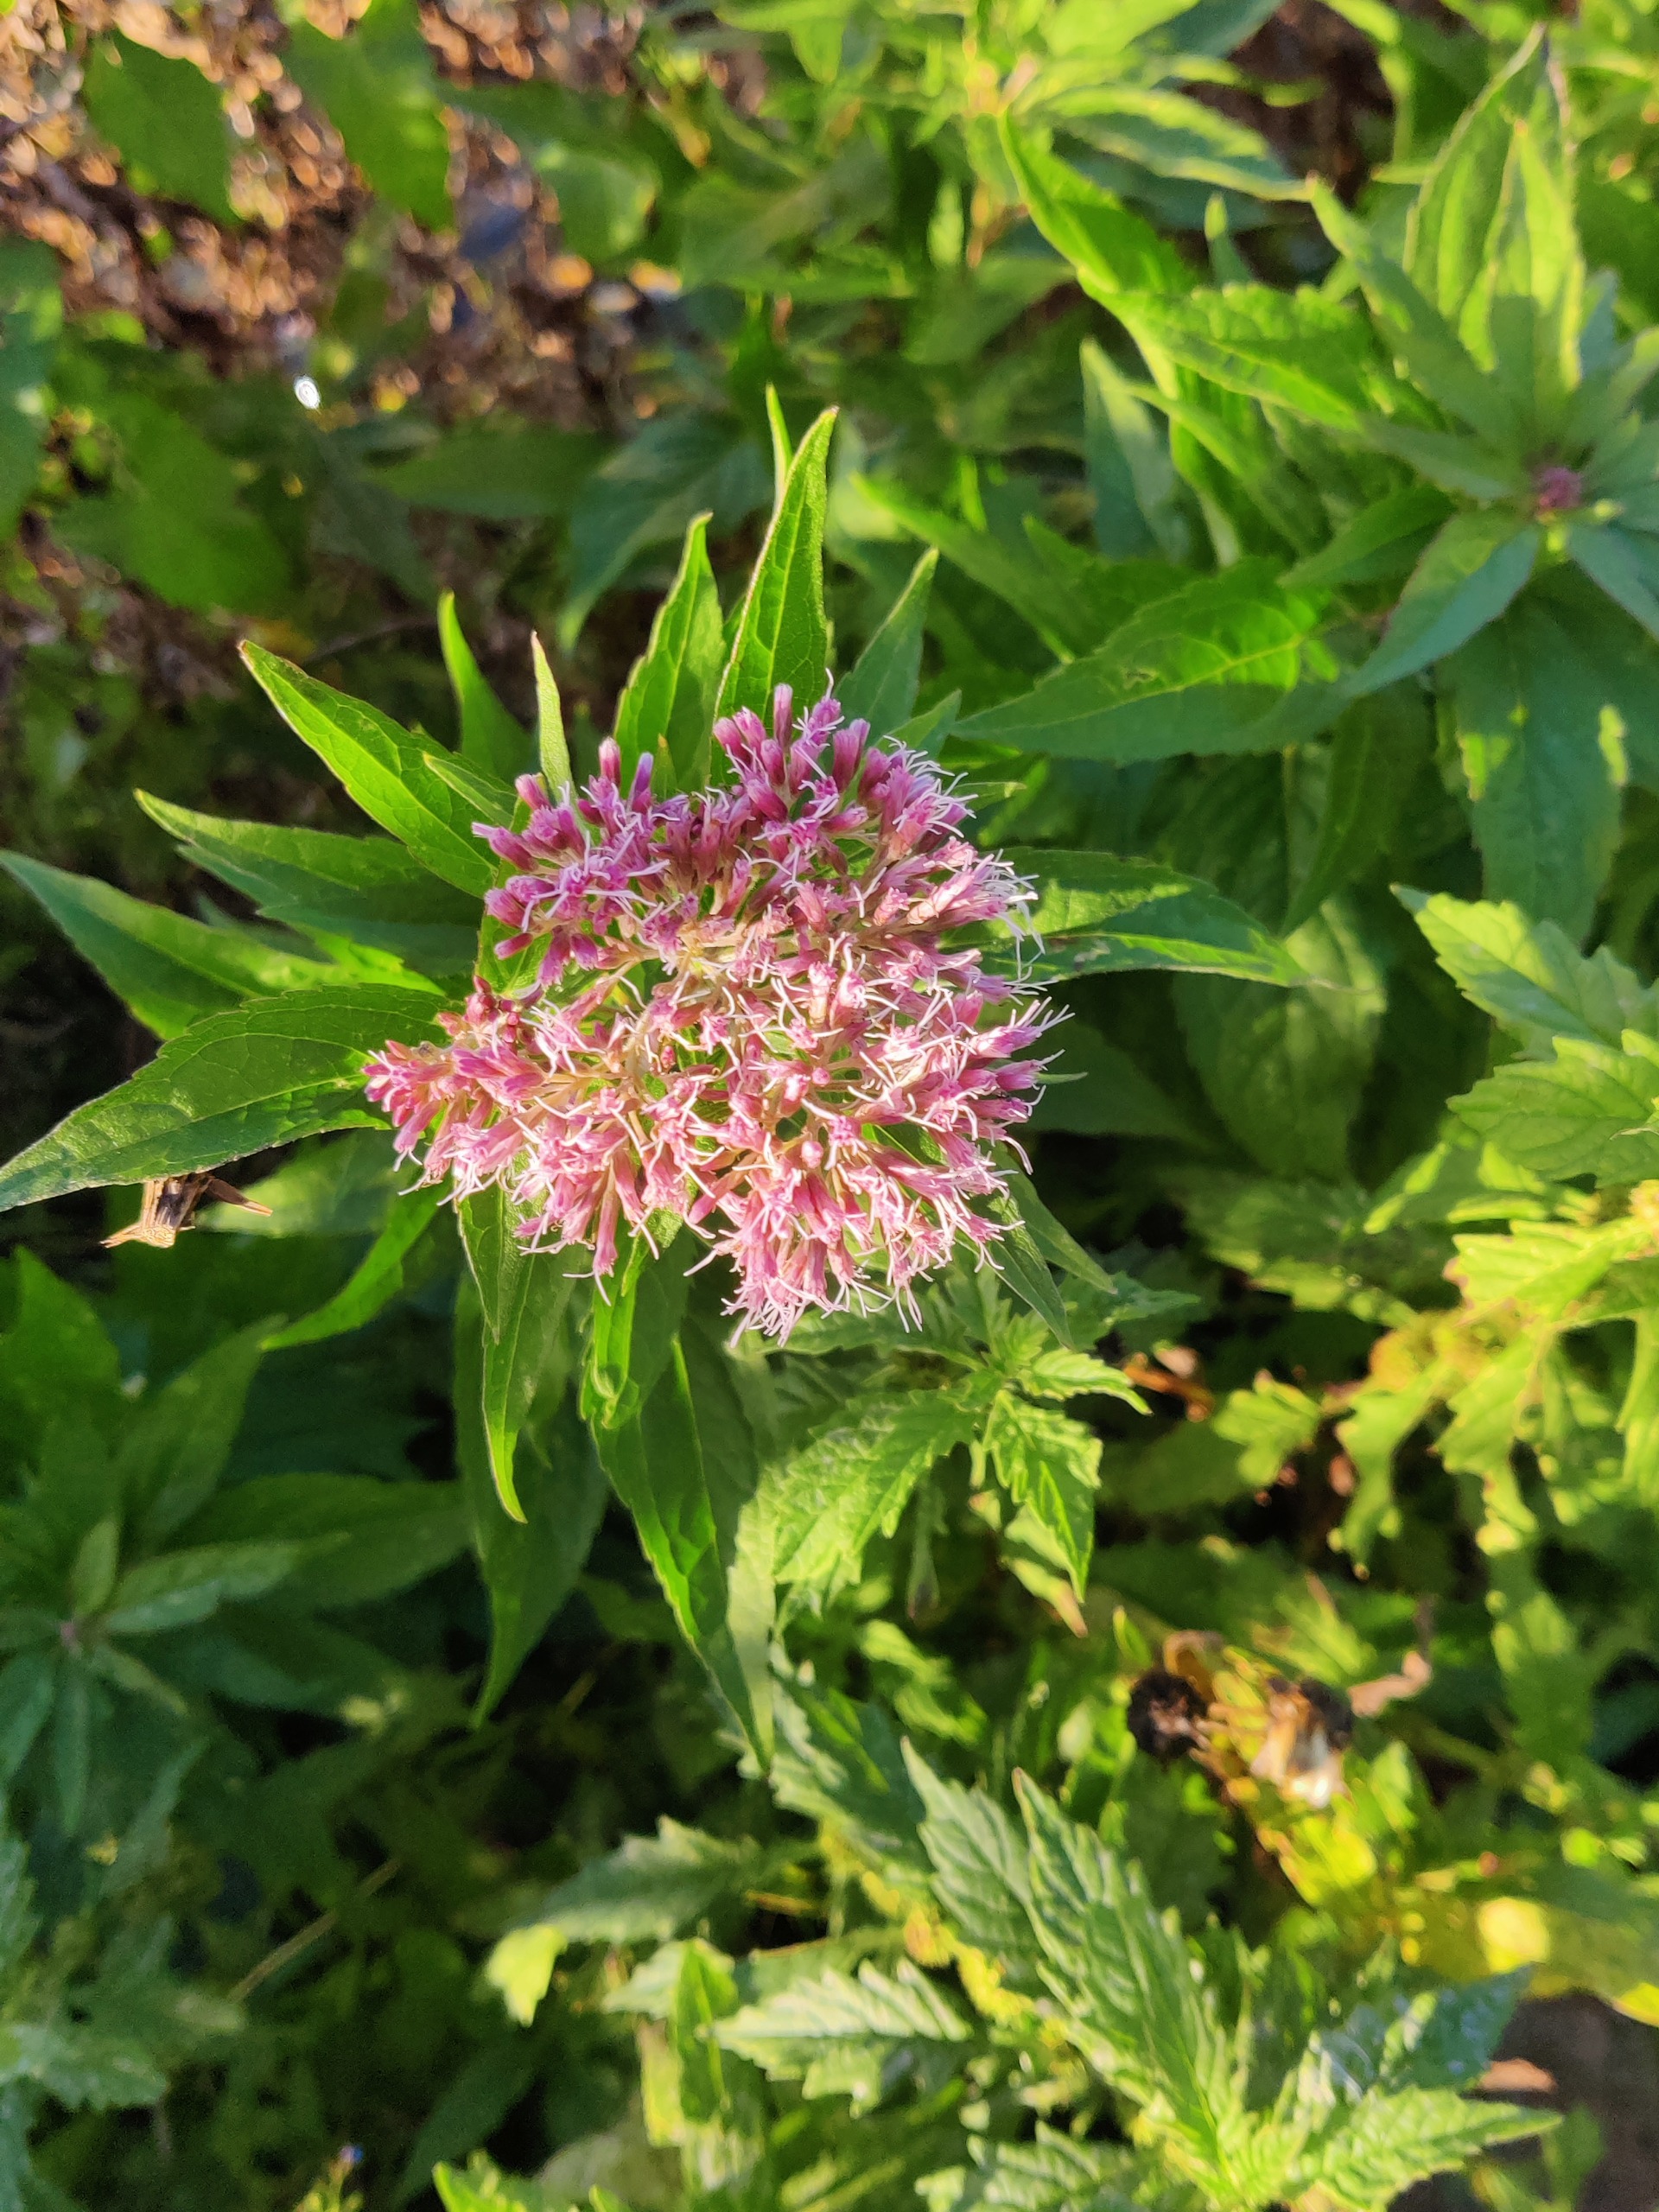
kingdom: Plantae
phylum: Tracheophyta
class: Magnoliopsida
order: Asterales
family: Asteraceae
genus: Eupatorium
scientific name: Eupatorium cannabinum
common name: Hjortetrøst
